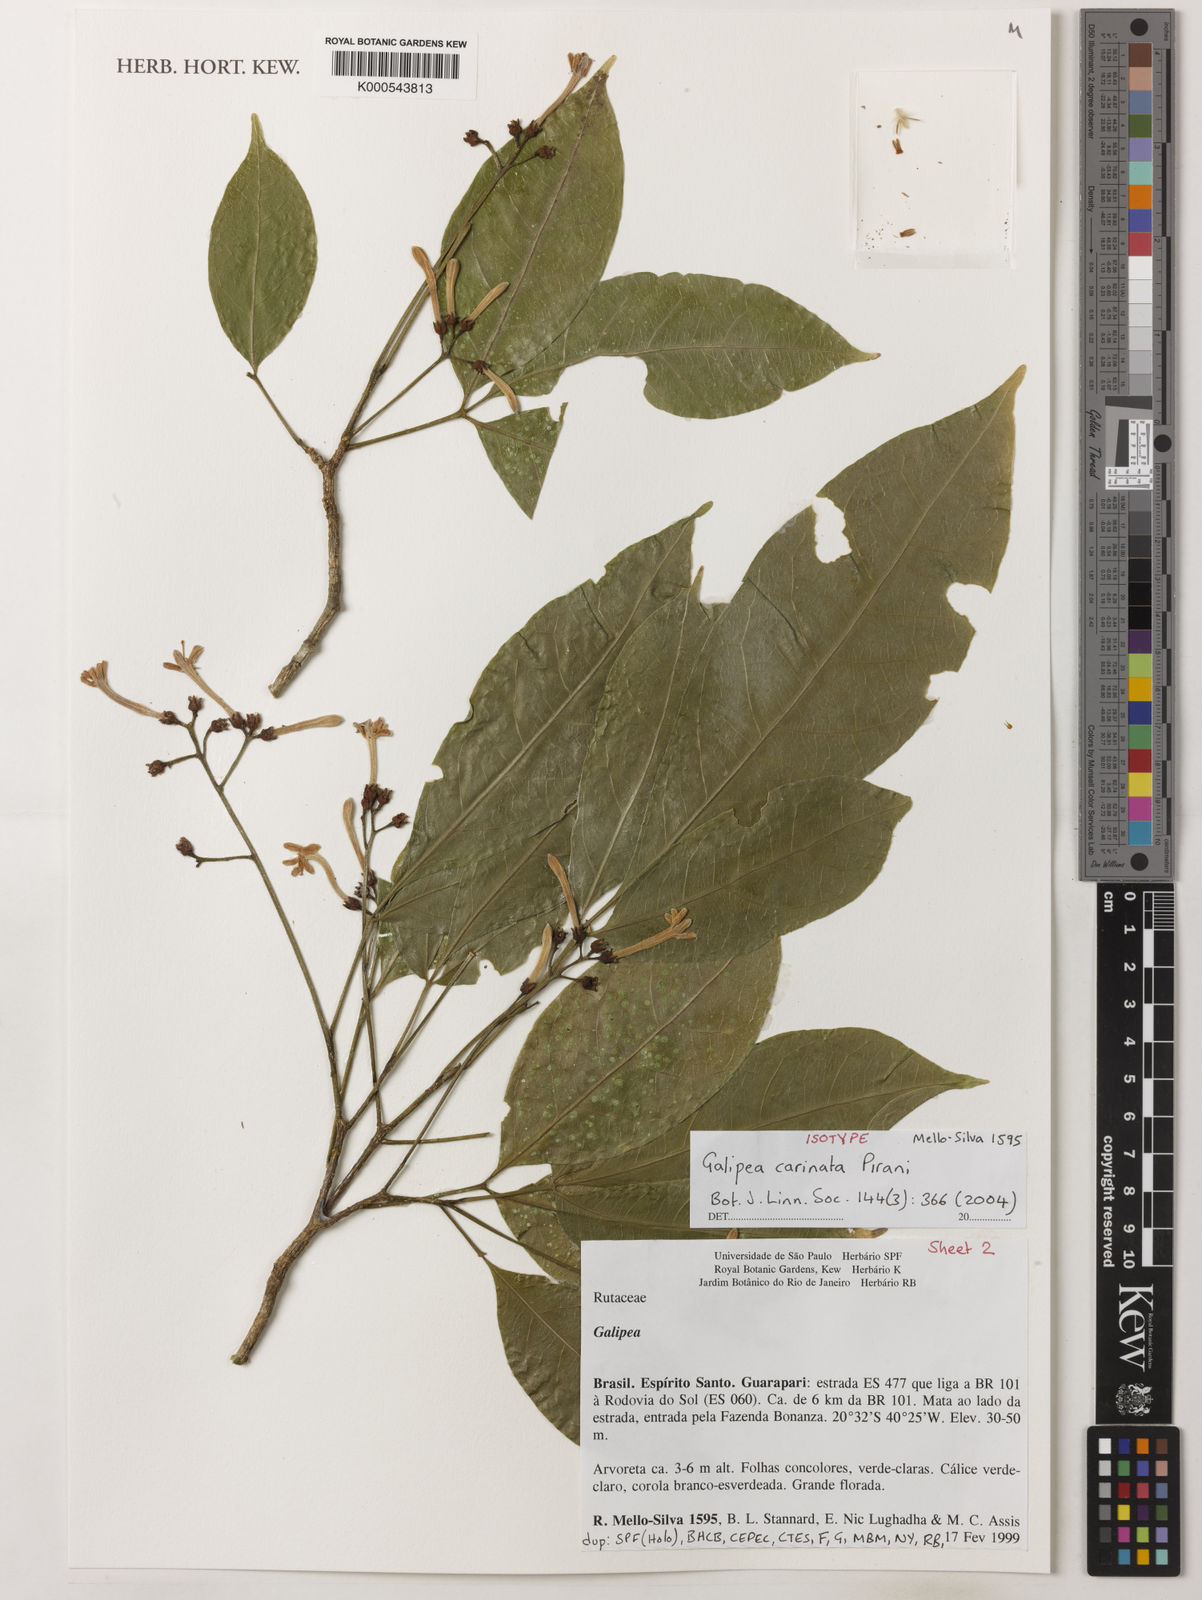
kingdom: Plantae
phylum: Tracheophyta
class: Magnoliopsida
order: Sapindales
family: Rutaceae
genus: Galipea
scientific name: Galipea carinata
